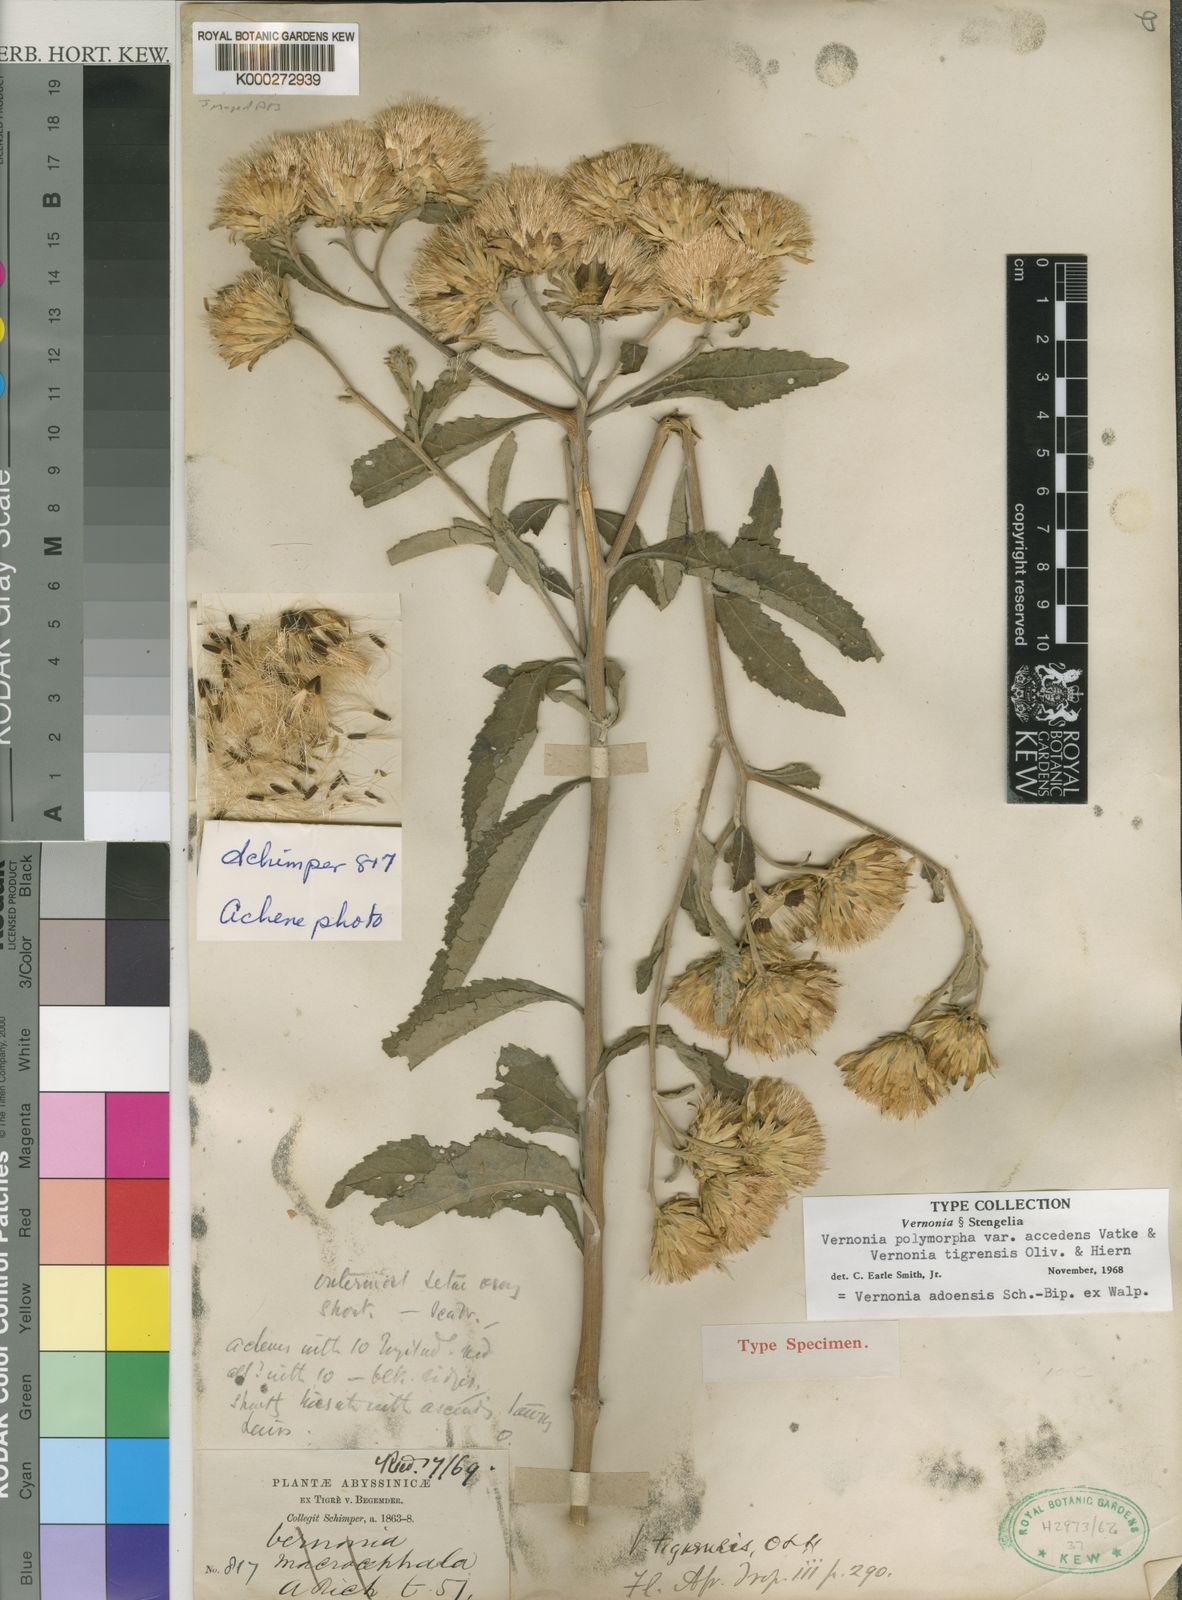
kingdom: Plantae
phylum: Tracheophyta
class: Magnoliopsida
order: Asterales
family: Asteraceae
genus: Baccharoides
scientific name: Baccharoides adoensis
